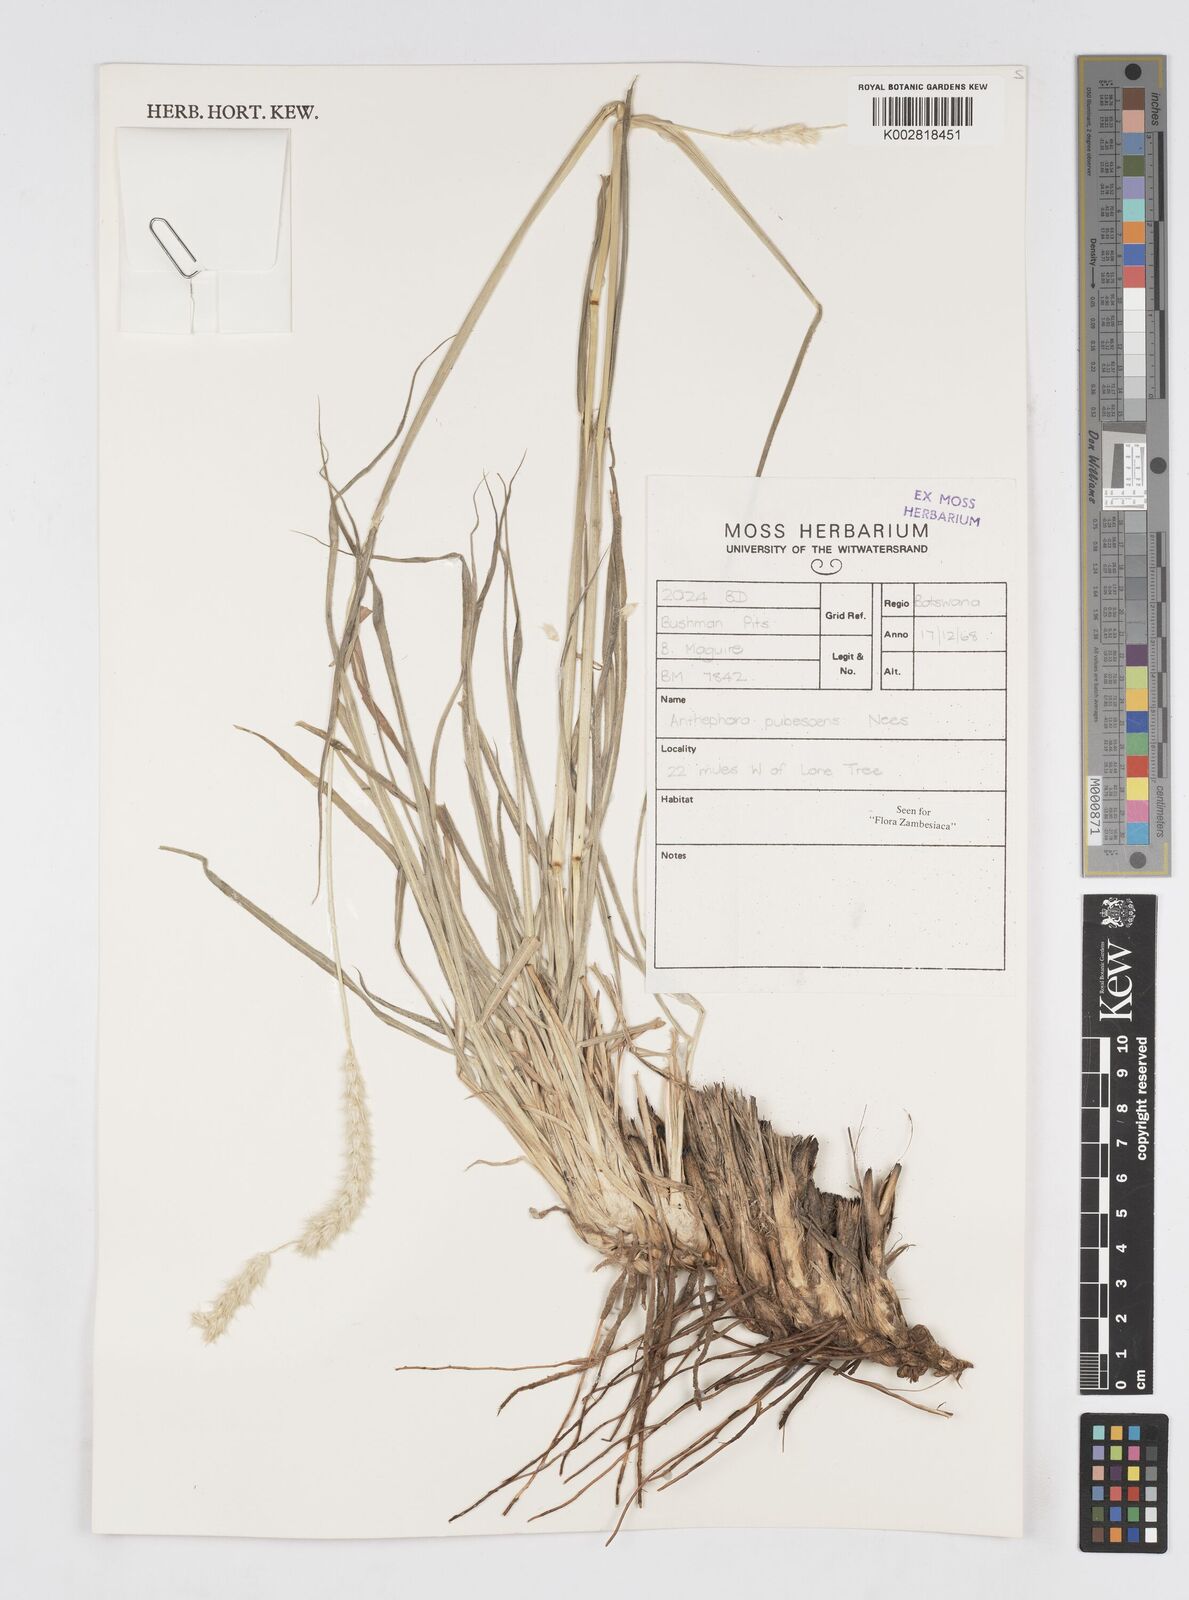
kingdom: Plantae
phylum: Tracheophyta
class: Liliopsida
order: Poales
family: Poaceae
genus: Anthephora
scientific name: Anthephora pubescens
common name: Wool grass
